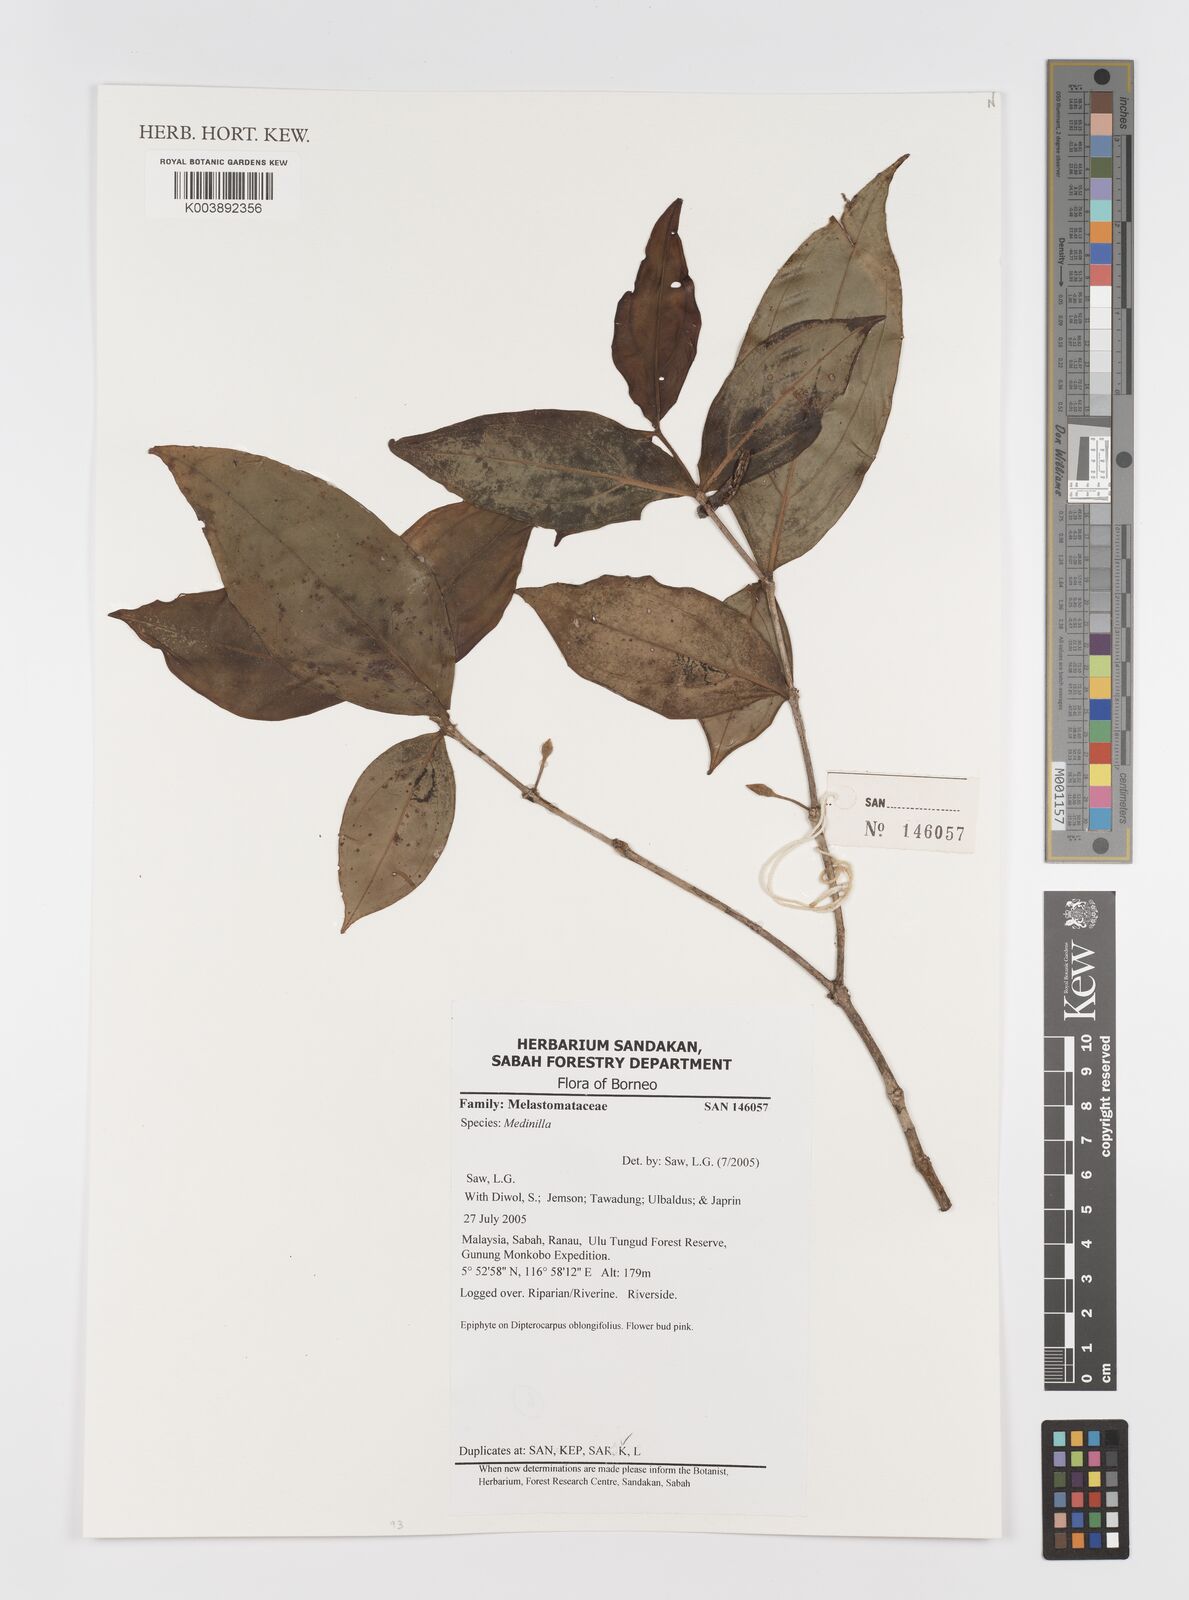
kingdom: Plantae
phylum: Tracheophyta
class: Magnoliopsida
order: Myrtales
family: Melastomataceae
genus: Medinilla
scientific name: Medinilla
